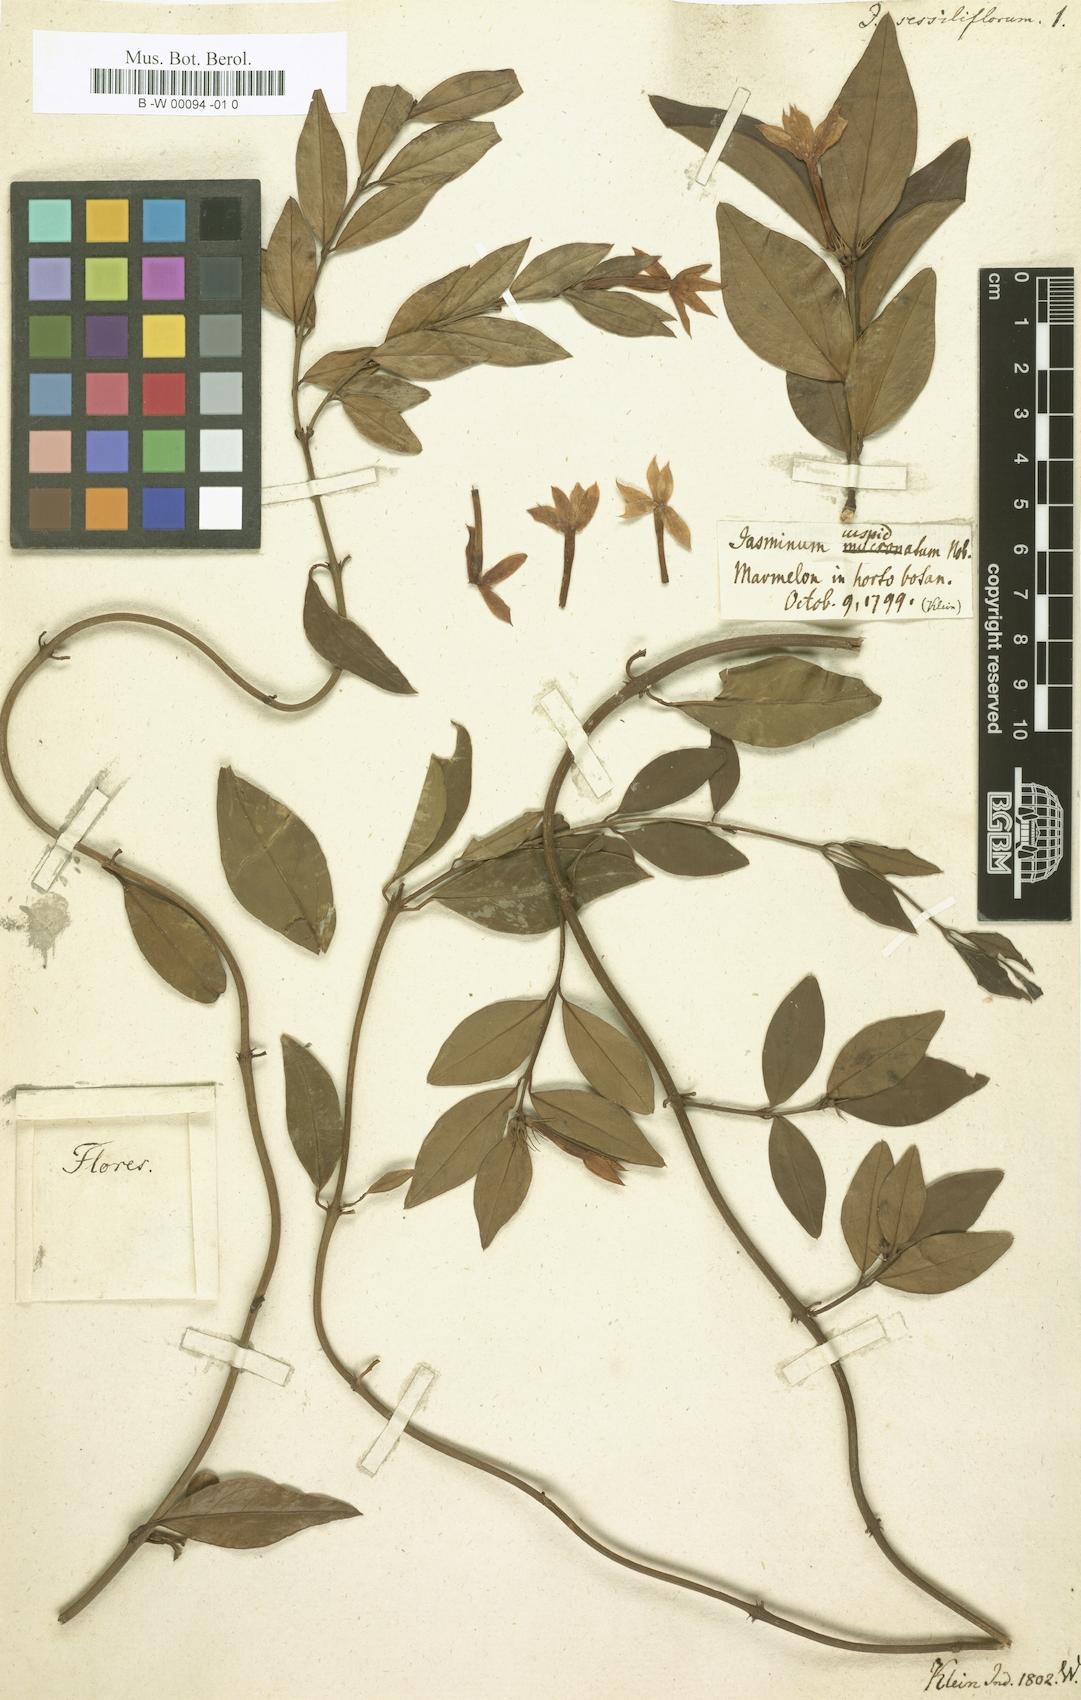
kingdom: Plantae
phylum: Tracheophyta
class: Magnoliopsida
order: Lamiales
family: Oleaceae
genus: Jasminum
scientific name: Jasminum angustifolium
